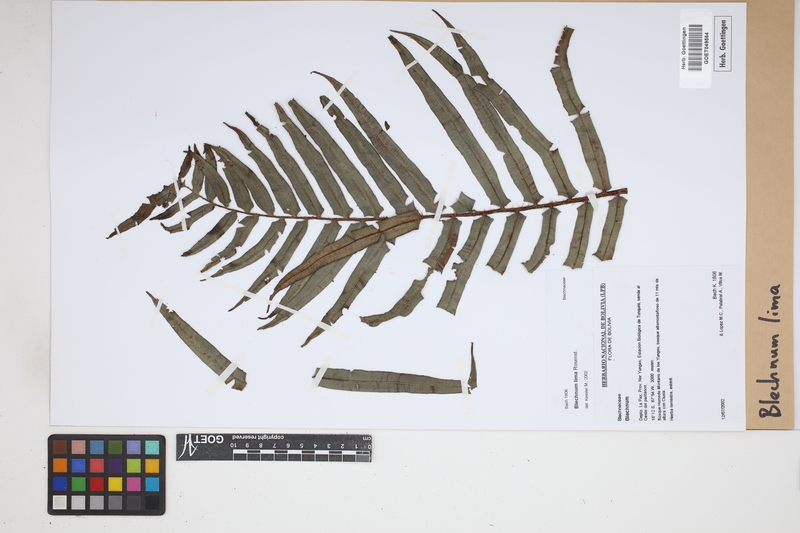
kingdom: Plantae
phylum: Tracheophyta
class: Polypodiopsida
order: Polypodiales
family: Blechnaceae
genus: Parablechnum
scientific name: Parablechnum lima
